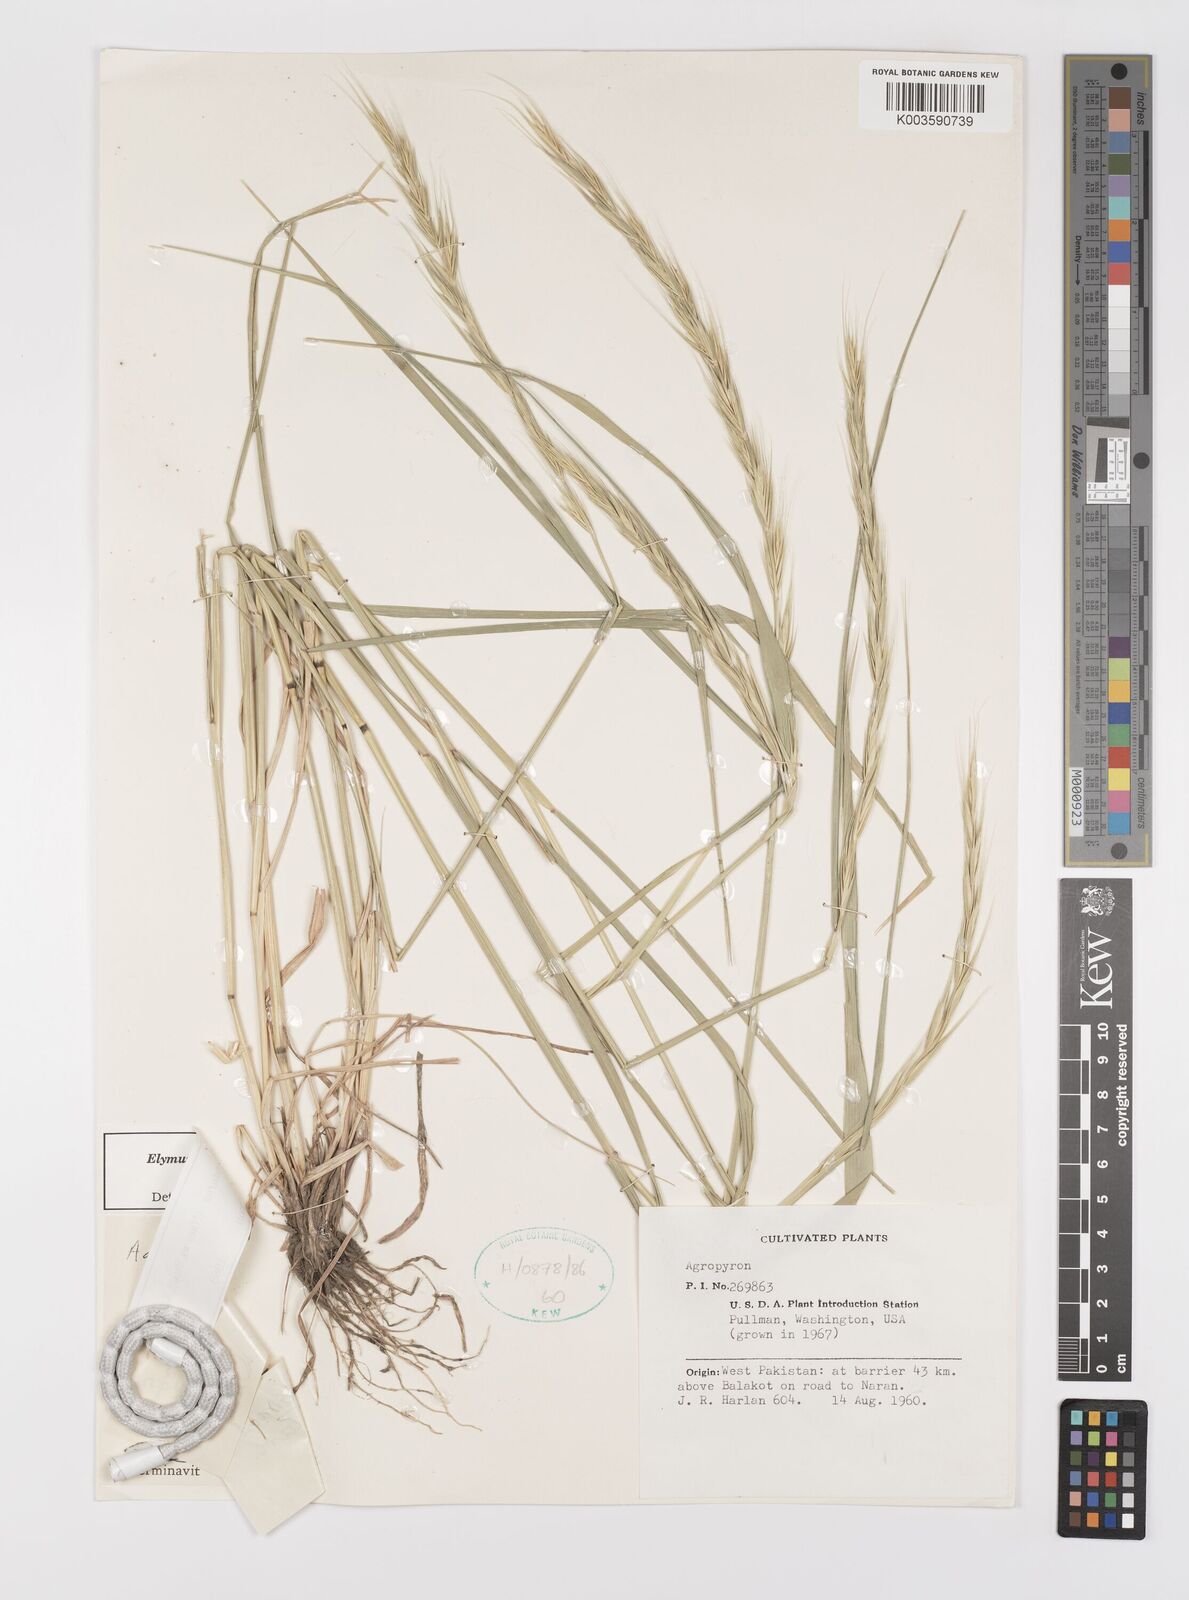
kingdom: Plantae
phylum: Tracheophyta
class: Liliopsida
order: Poales
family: Poaceae
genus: Elymus
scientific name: Elymus semicostatus
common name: Drooping wildrye
